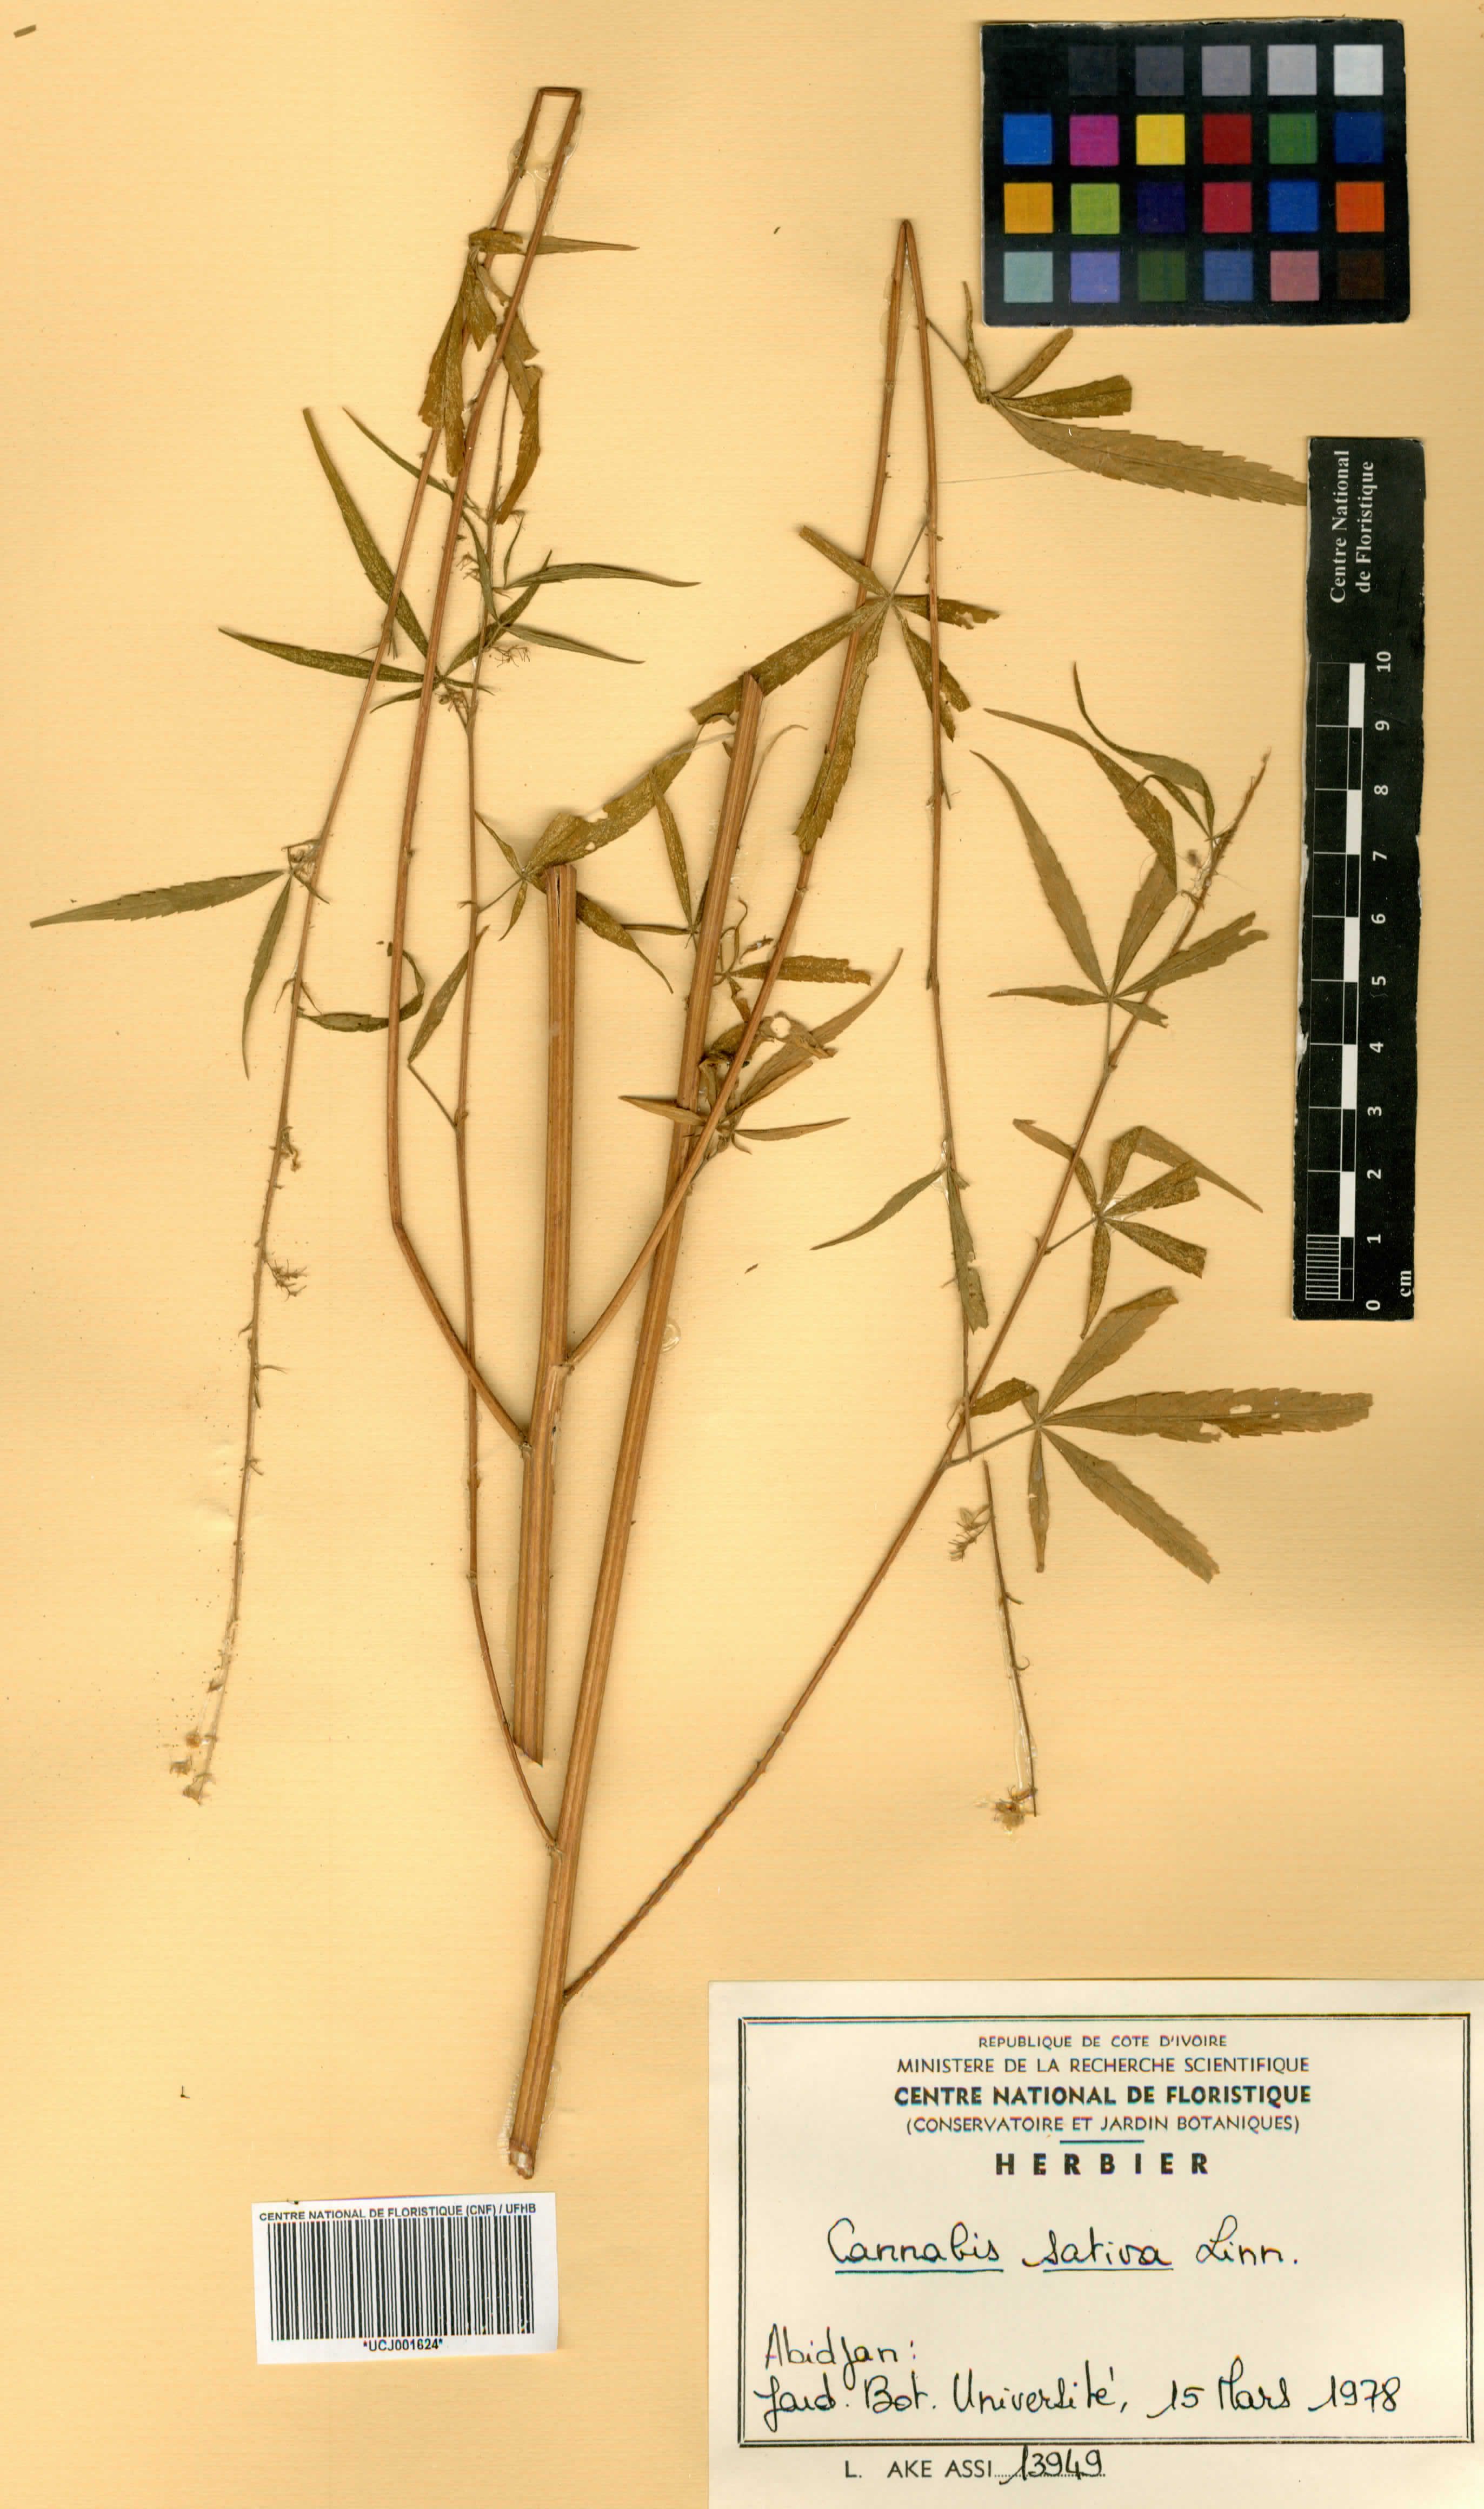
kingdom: Plantae
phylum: Tracheophyta
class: Magnoliopsida
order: Rosales
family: Cannabaceae
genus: Cannabis
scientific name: Cannabis sativa
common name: Hemp
